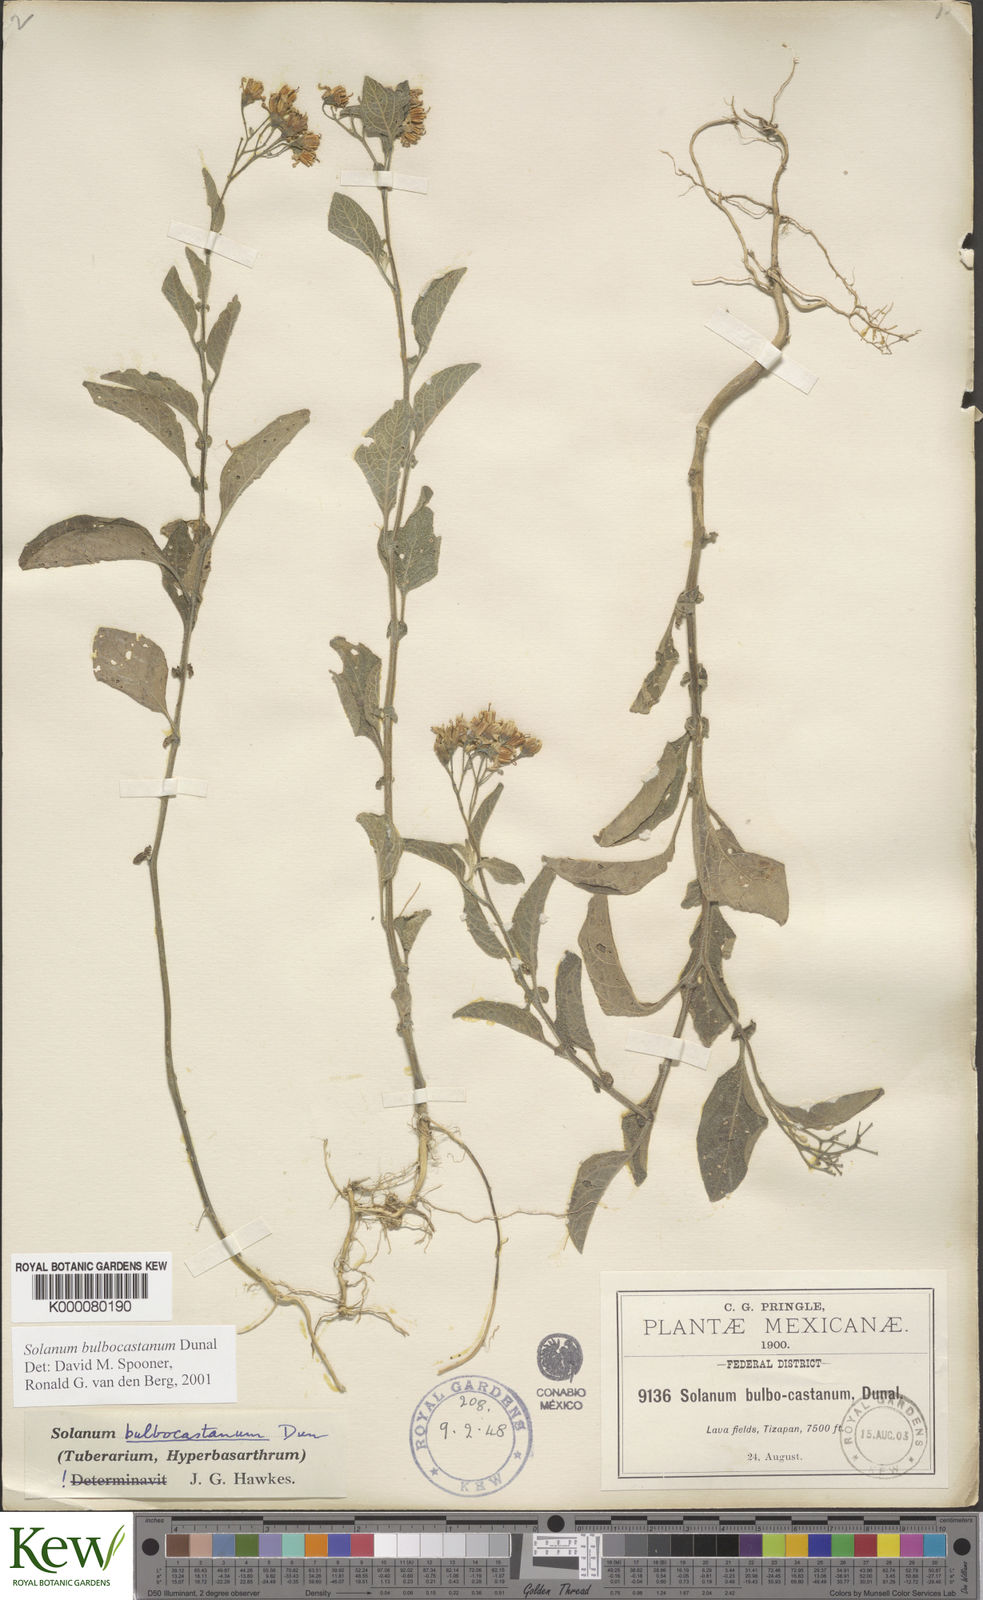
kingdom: Plantae
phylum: Tracheophyta
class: Magnoliopsida
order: Solanales
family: Solanaceae
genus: Solanum
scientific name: Solanum bulbocastanum
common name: Ornamental nightshade
